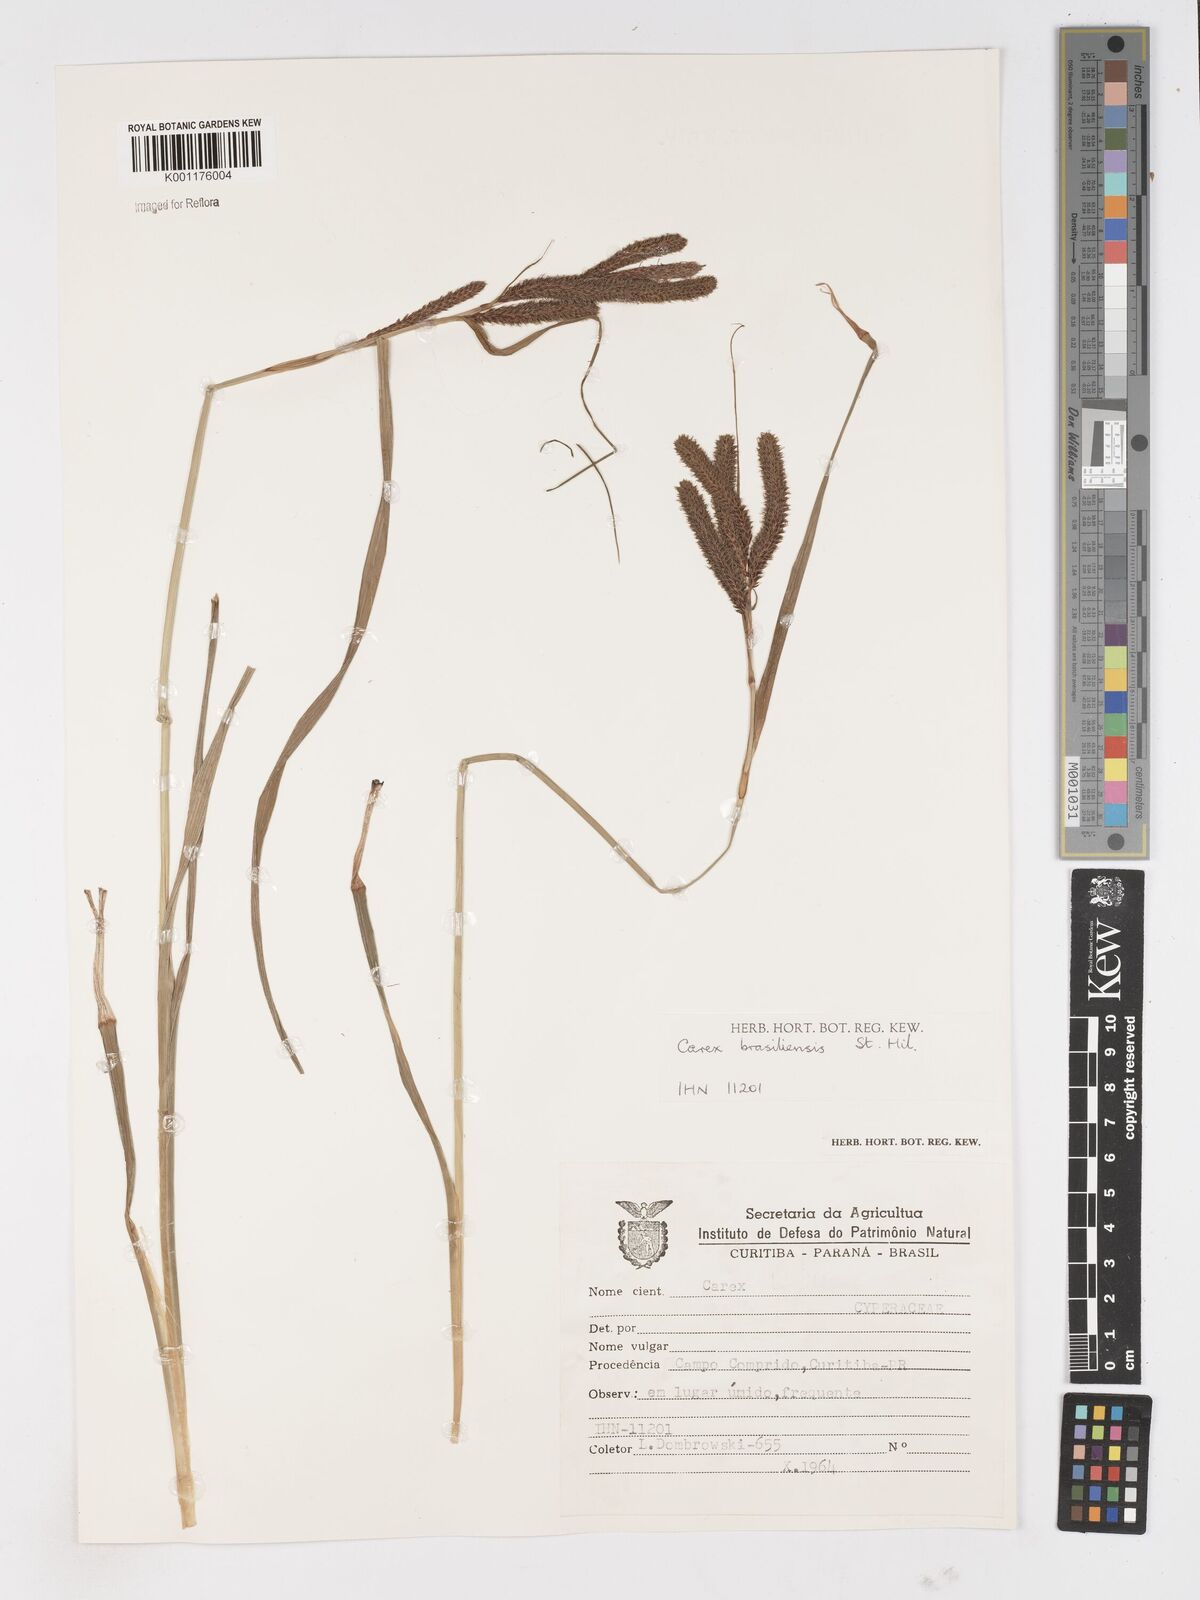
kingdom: Plantae
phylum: Tracheophyta
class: Liliopsida
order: Poales
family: Cyperaceae
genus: Carex
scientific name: Carex brasiliensis
